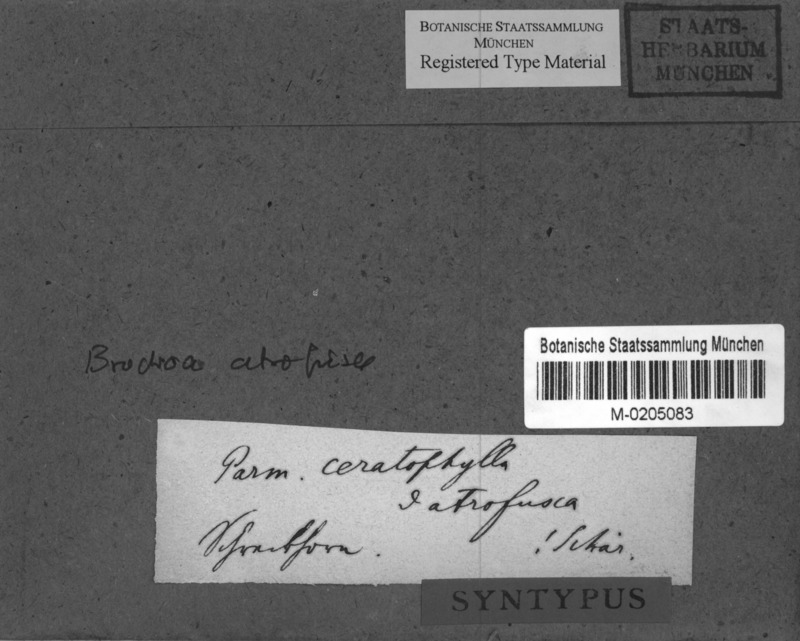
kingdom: Fungi
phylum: Ascomycota
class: Lecanoromycetes
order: Lecanorales
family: Parmeliaceae
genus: Allantoparmelia
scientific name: Allantoparmelia alpicola
